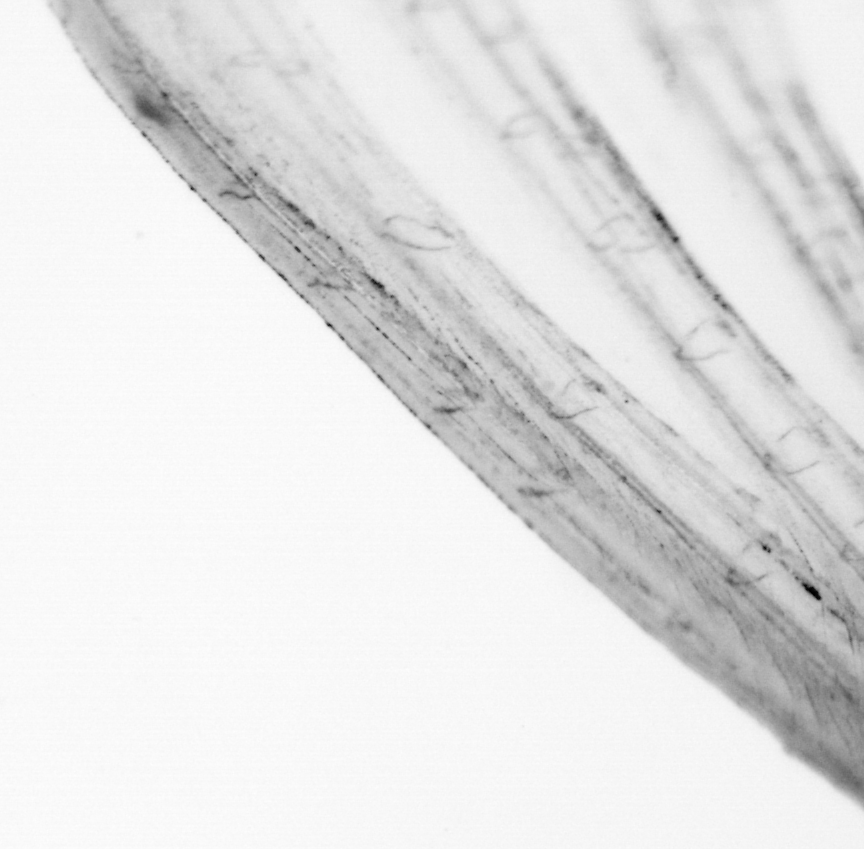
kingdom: Animalia
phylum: Chordata
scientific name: Chordata
